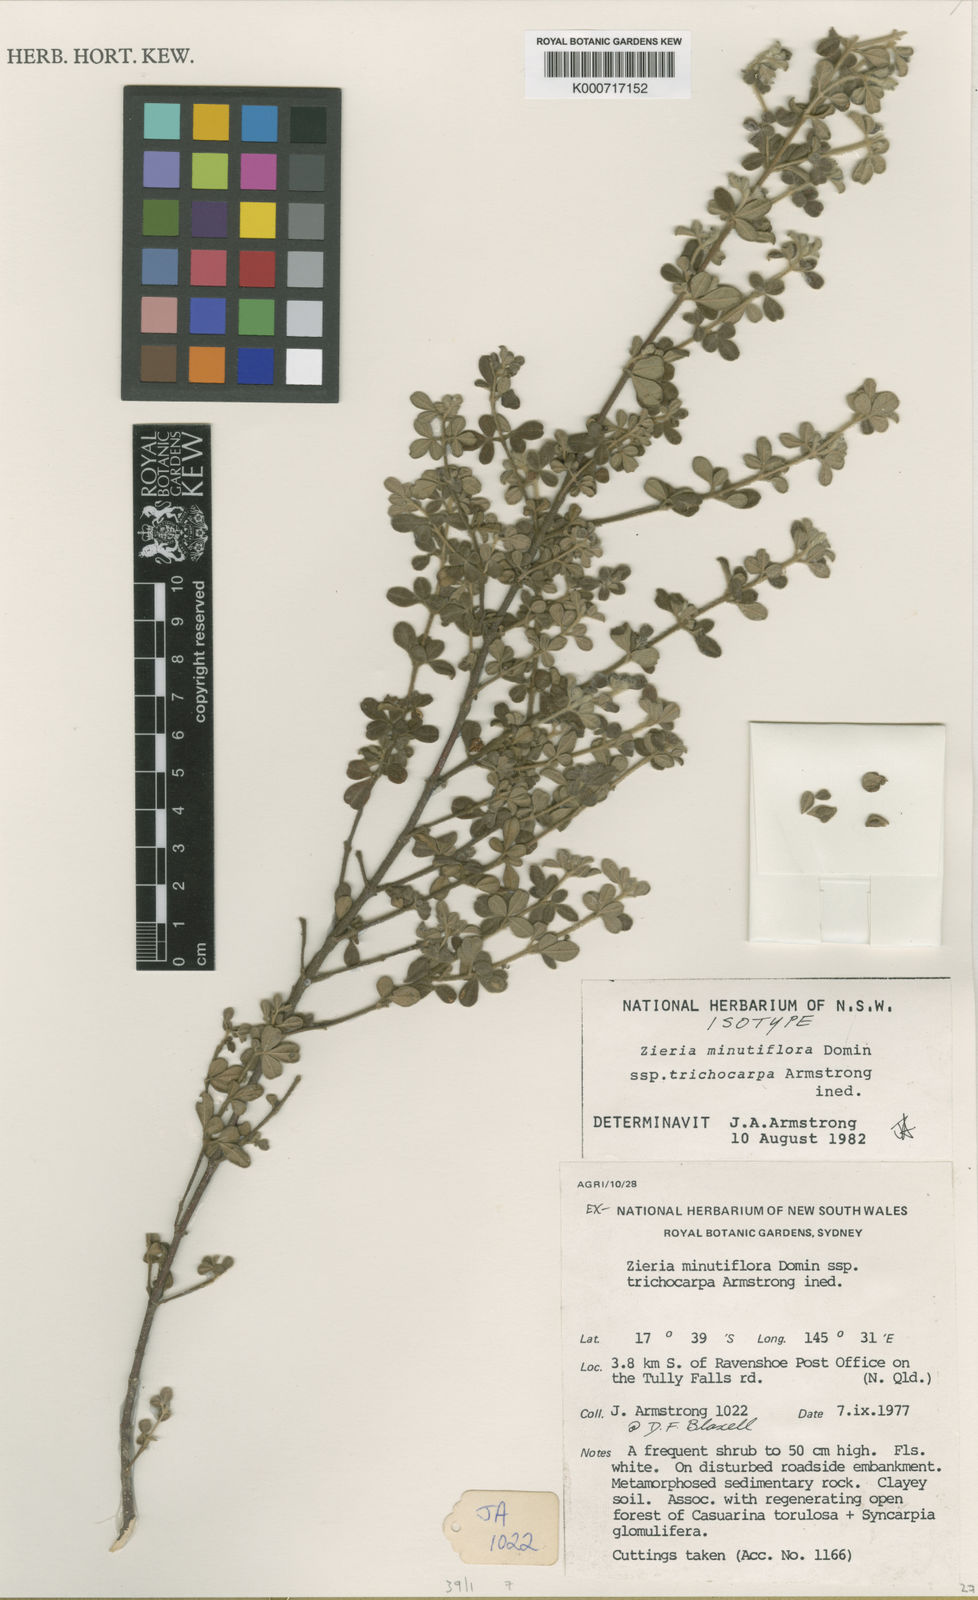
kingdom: Plantae
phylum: Tracheophyta
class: Magnoliopsida
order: Sapindales
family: Rutaceae
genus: Zieria
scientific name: Zieria minutiflora
